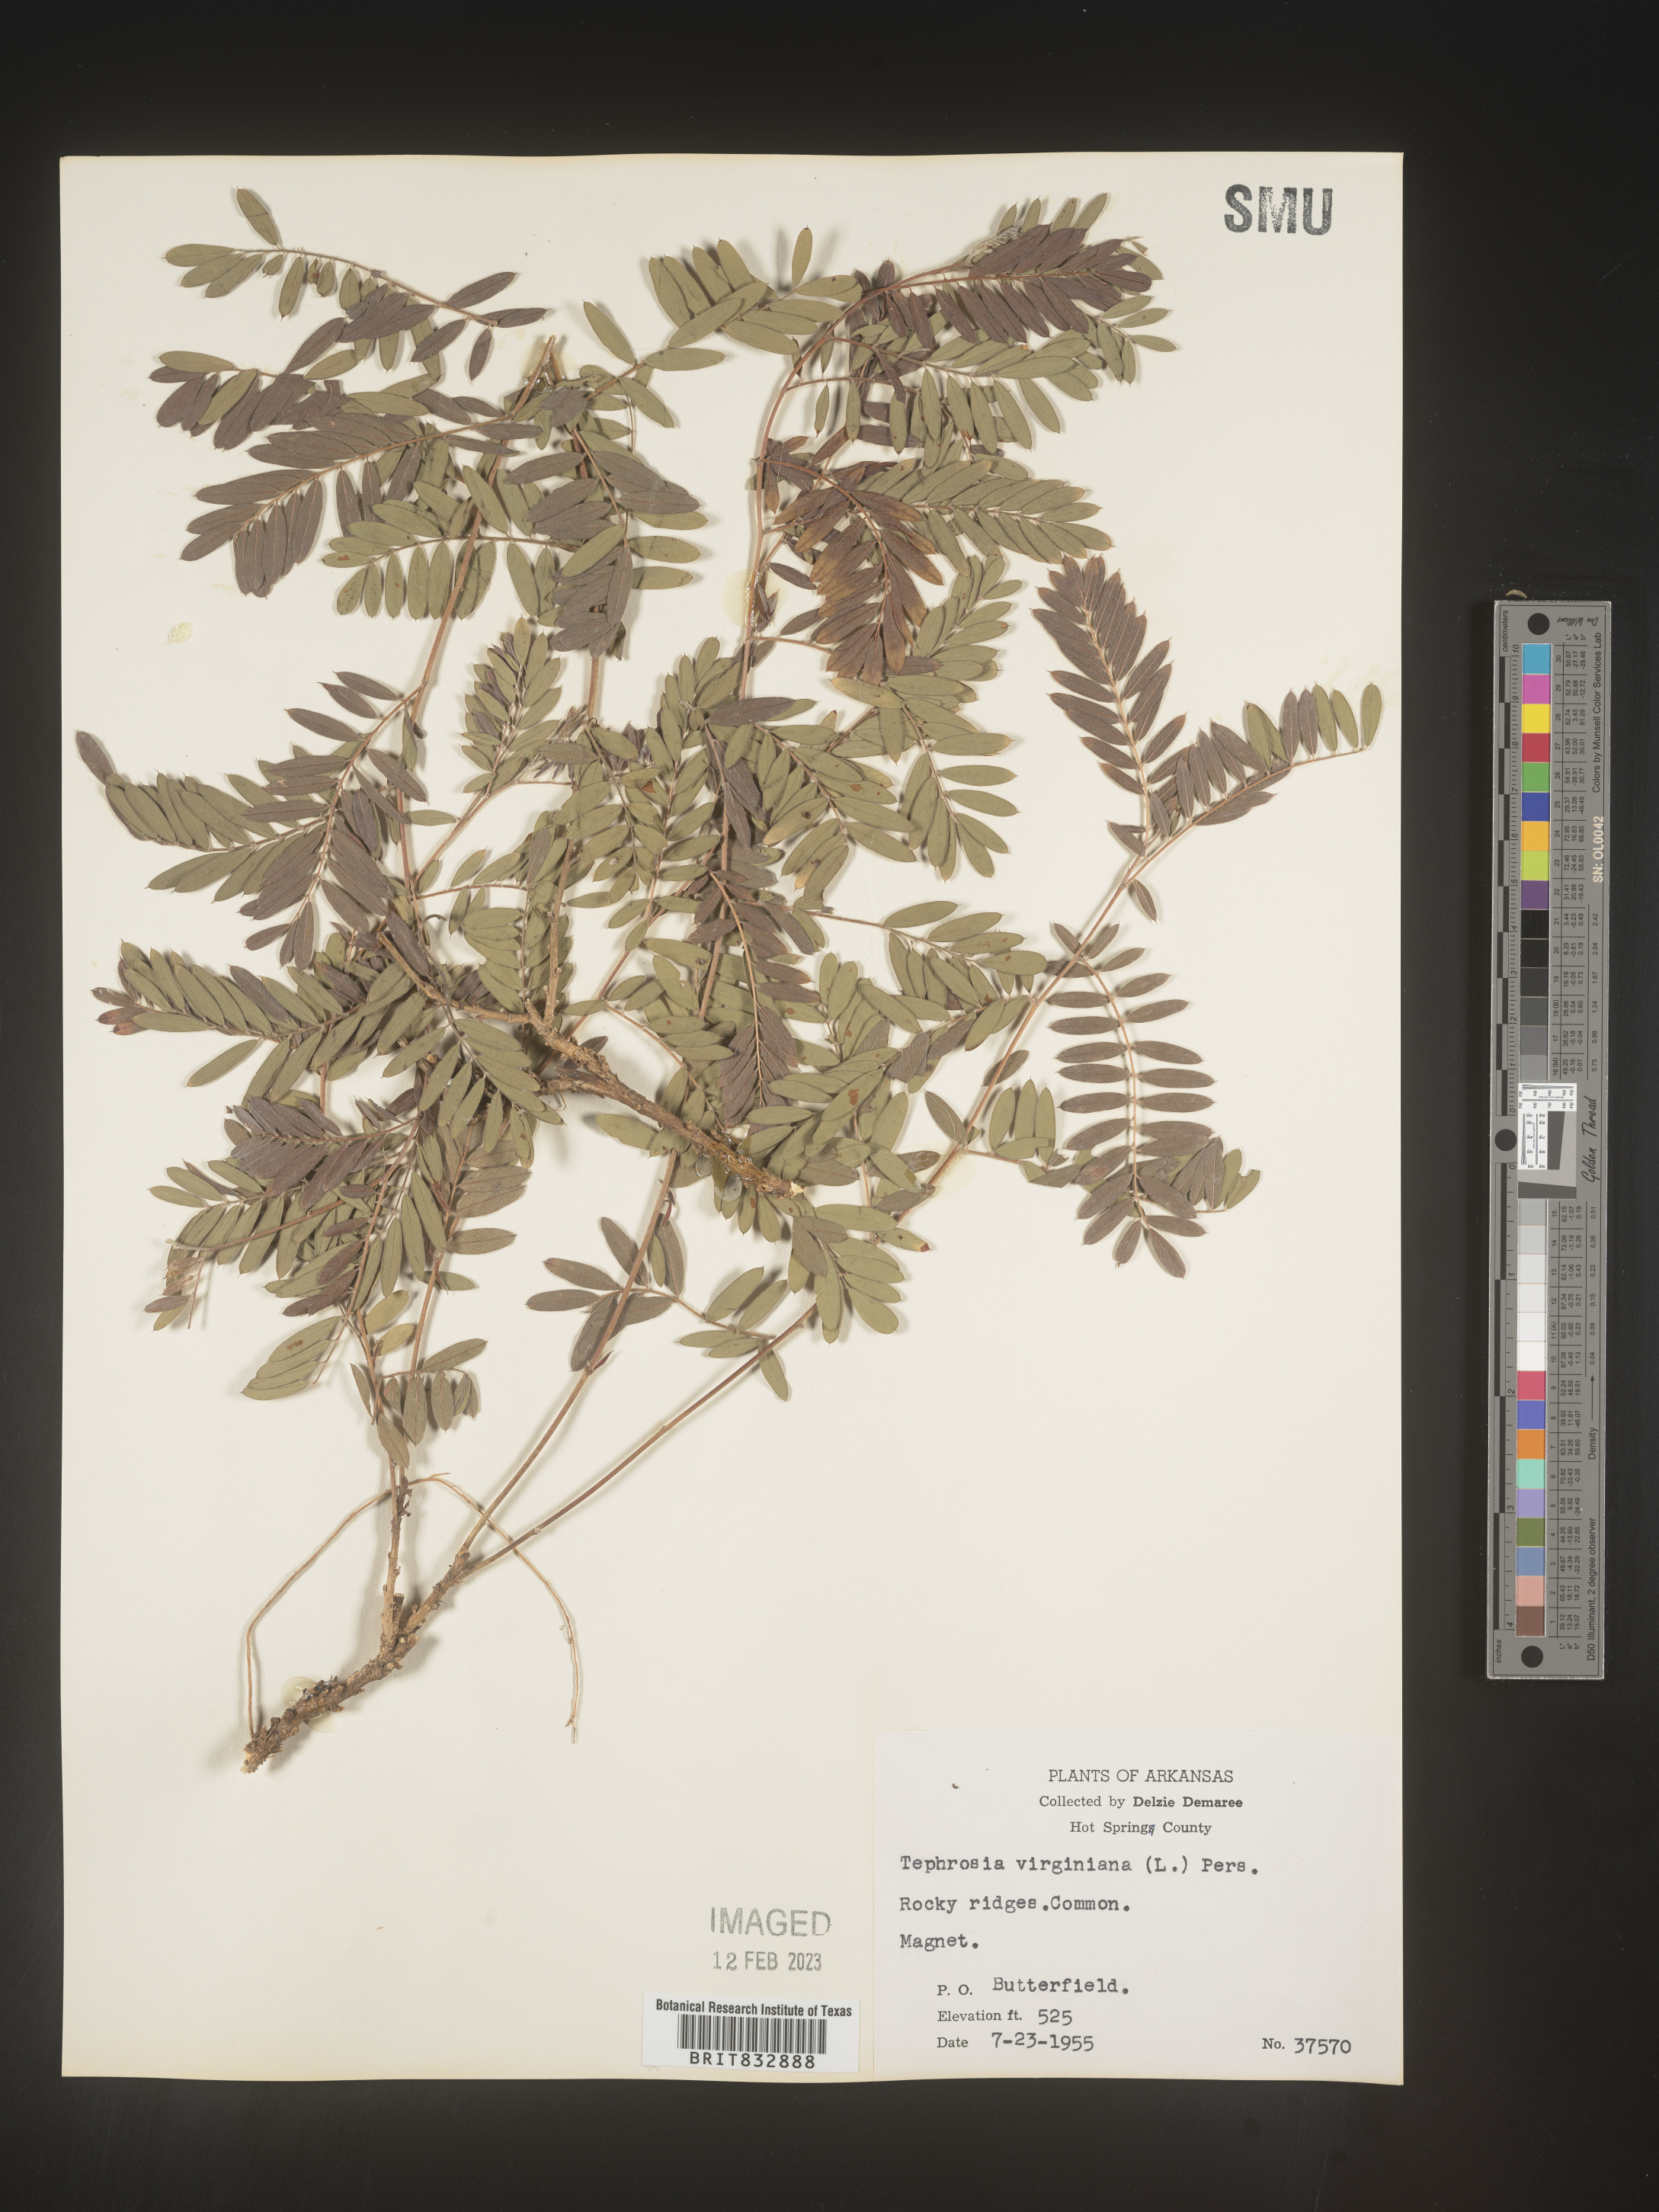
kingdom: Plantae
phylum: Tracheophyta
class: Magnoliopsida
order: Fabales
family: Fabaceae
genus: Tephrosia
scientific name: Tephrosia virginiana
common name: Rabbit-pea
